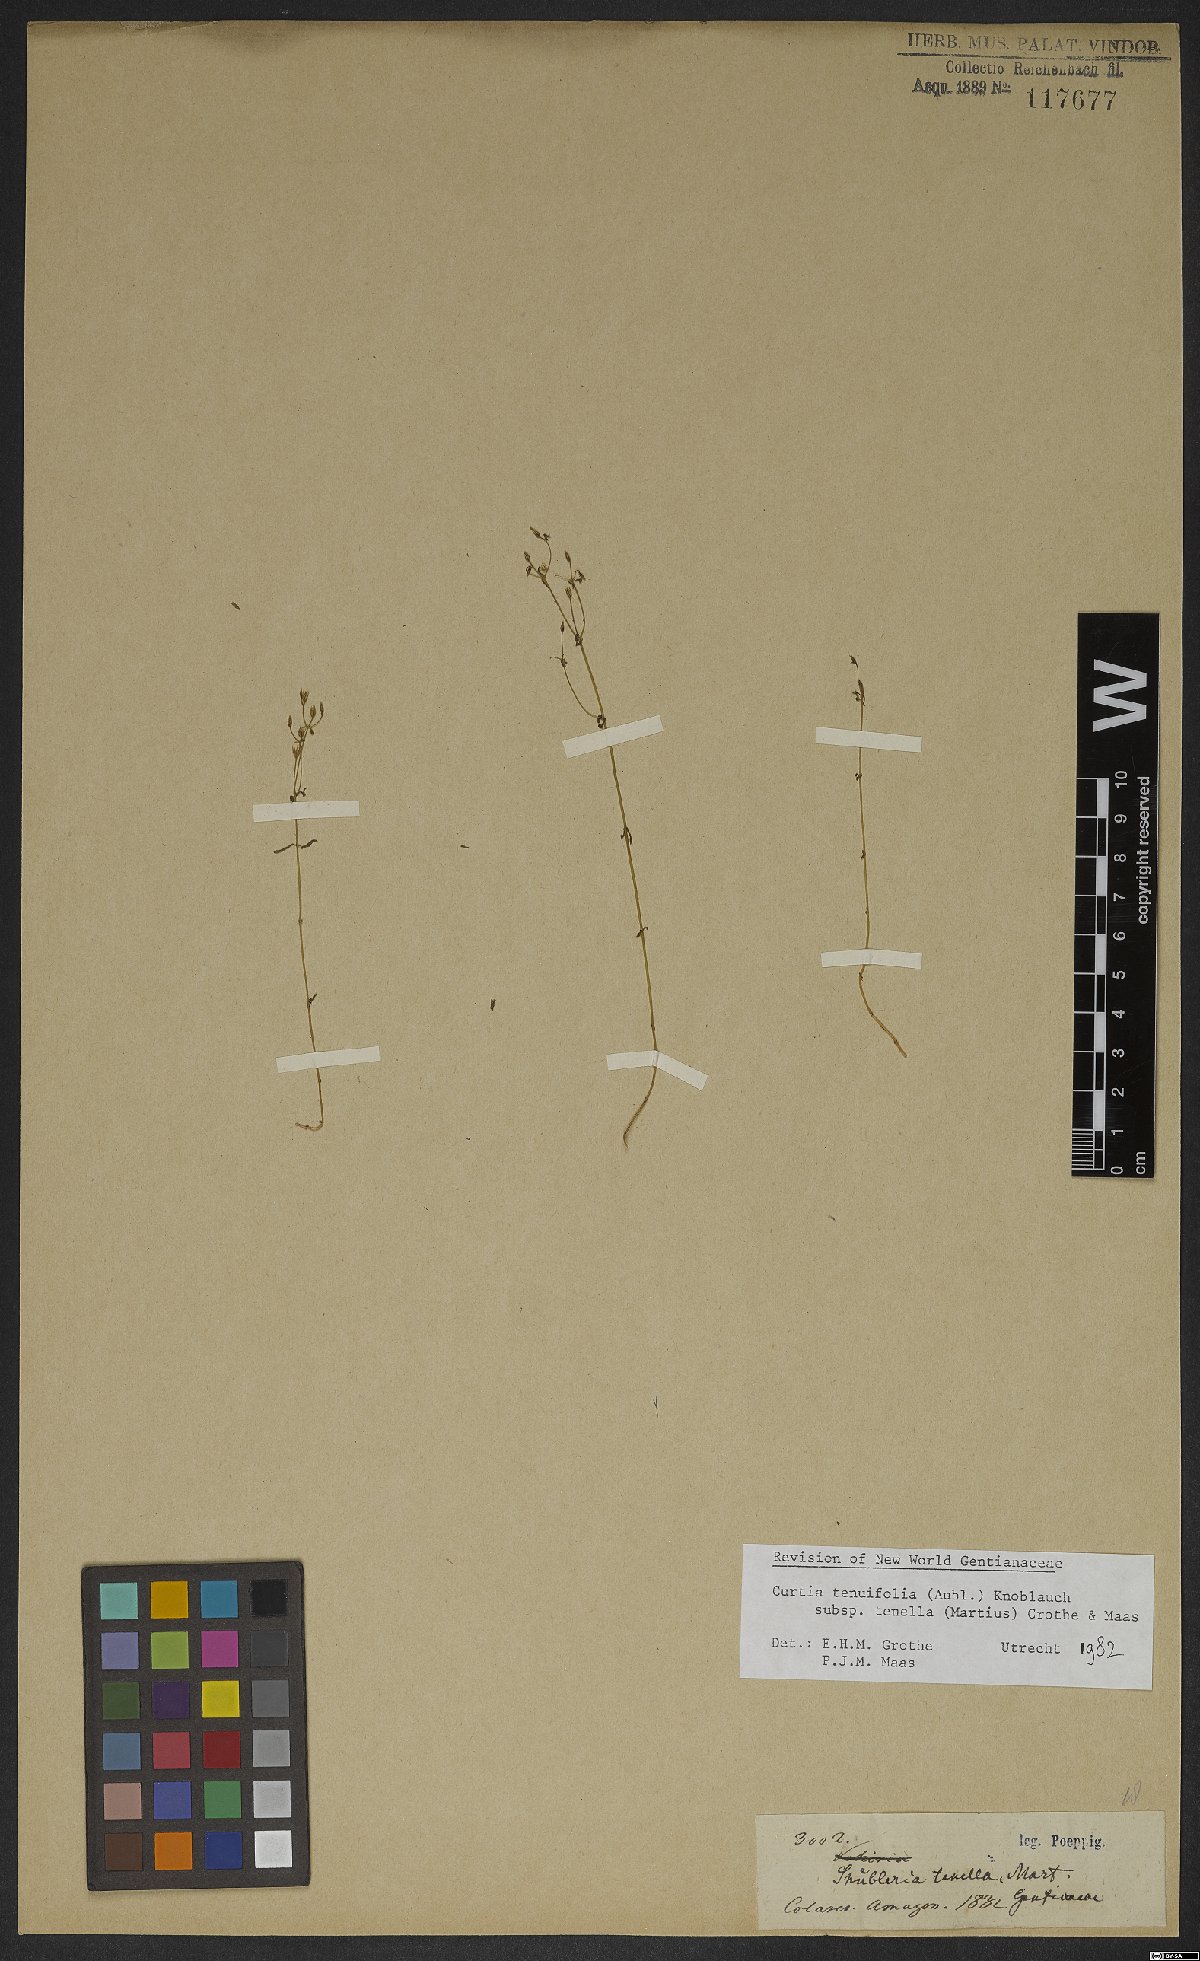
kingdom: Plantae
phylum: Tracheophyta
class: Magnoliopsida
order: Gentianales
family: Gentianaceae
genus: Curtia
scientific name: Curtia tenella
